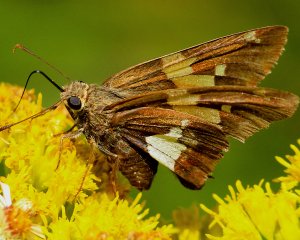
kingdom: Animalia
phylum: Arthropoda
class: Insecta
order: Lepidoptera
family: Hesperiidae
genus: Epargyreus
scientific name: Epargyreus clarus
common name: Silver-spotted Skipper
